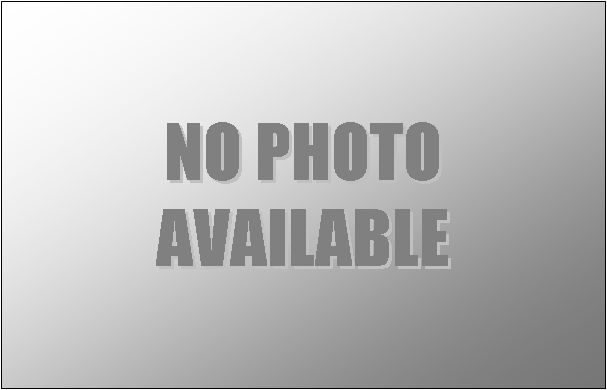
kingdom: Animalia
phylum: Chordata
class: Mammalia
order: Cetacea
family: Phocoenidae
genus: Phocoena
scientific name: Phocoena phocoena
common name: Harbour porpoise
